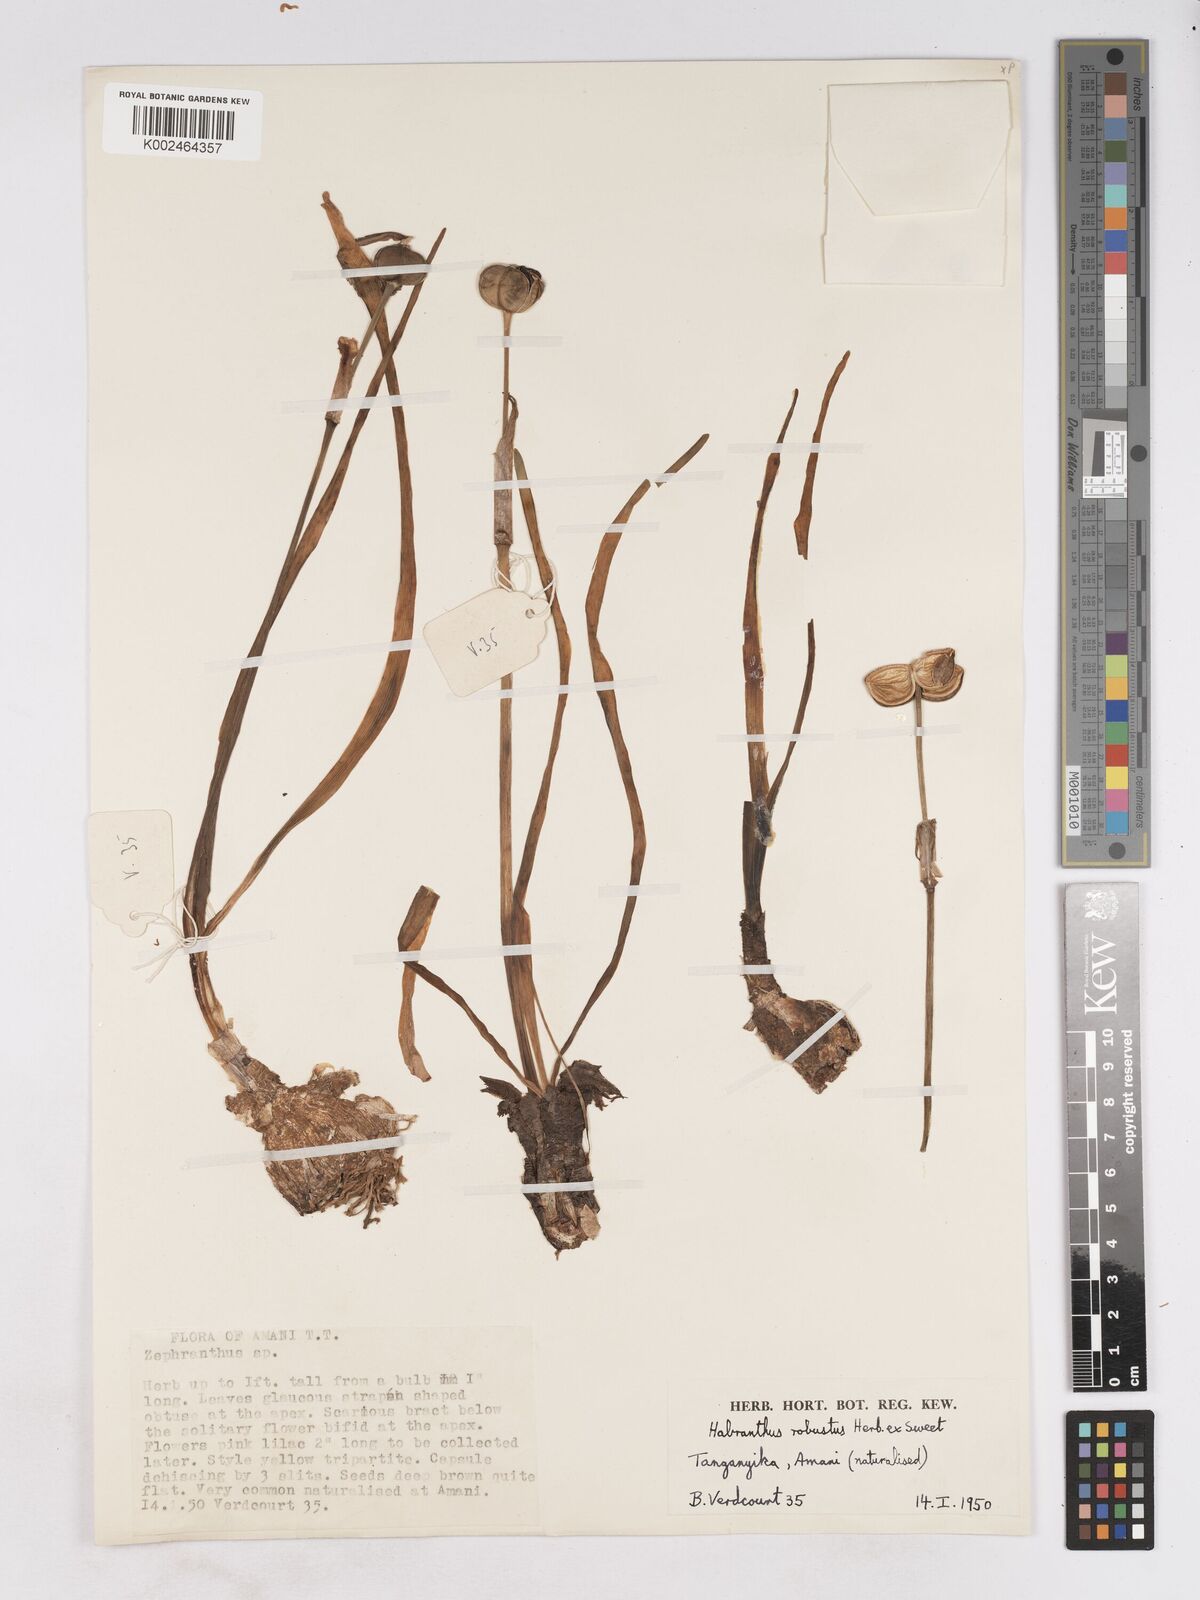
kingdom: Plantae
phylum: Tracheophyta
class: Liliopsida
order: Asparagales
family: Amaryllidaceae
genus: Zephyranthes
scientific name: Zephyranthes robusta
